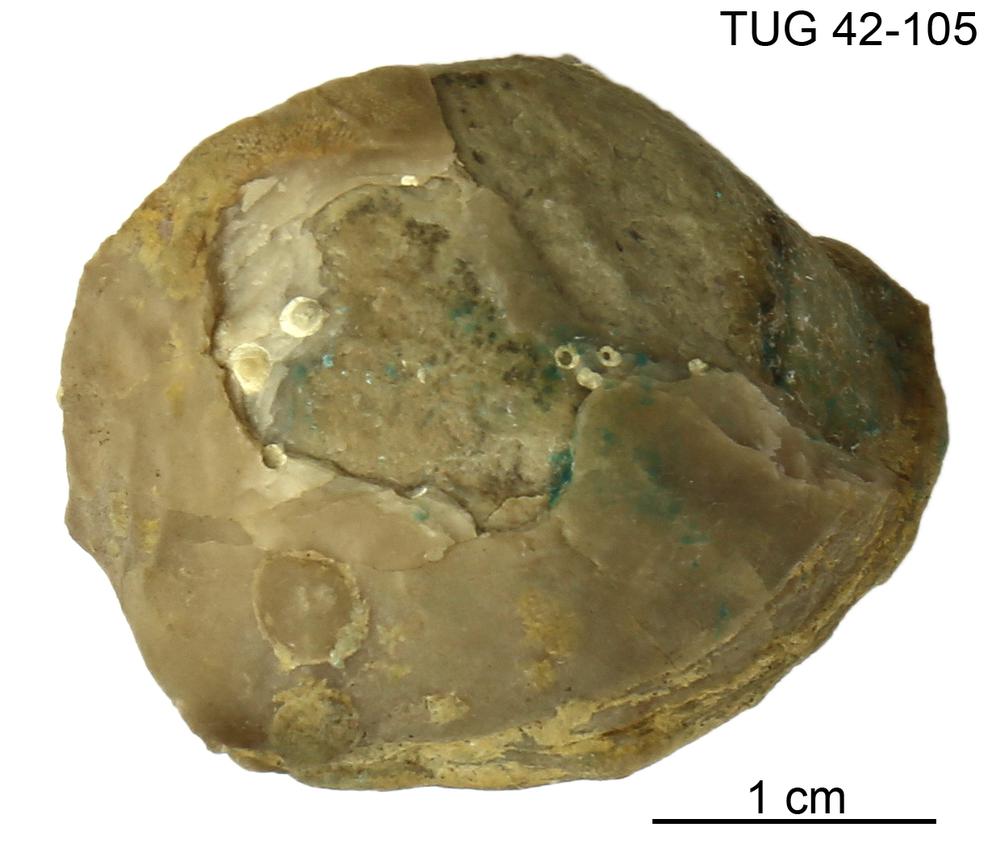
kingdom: Animalia
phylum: Brachiopoda
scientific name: Brachiopoda
